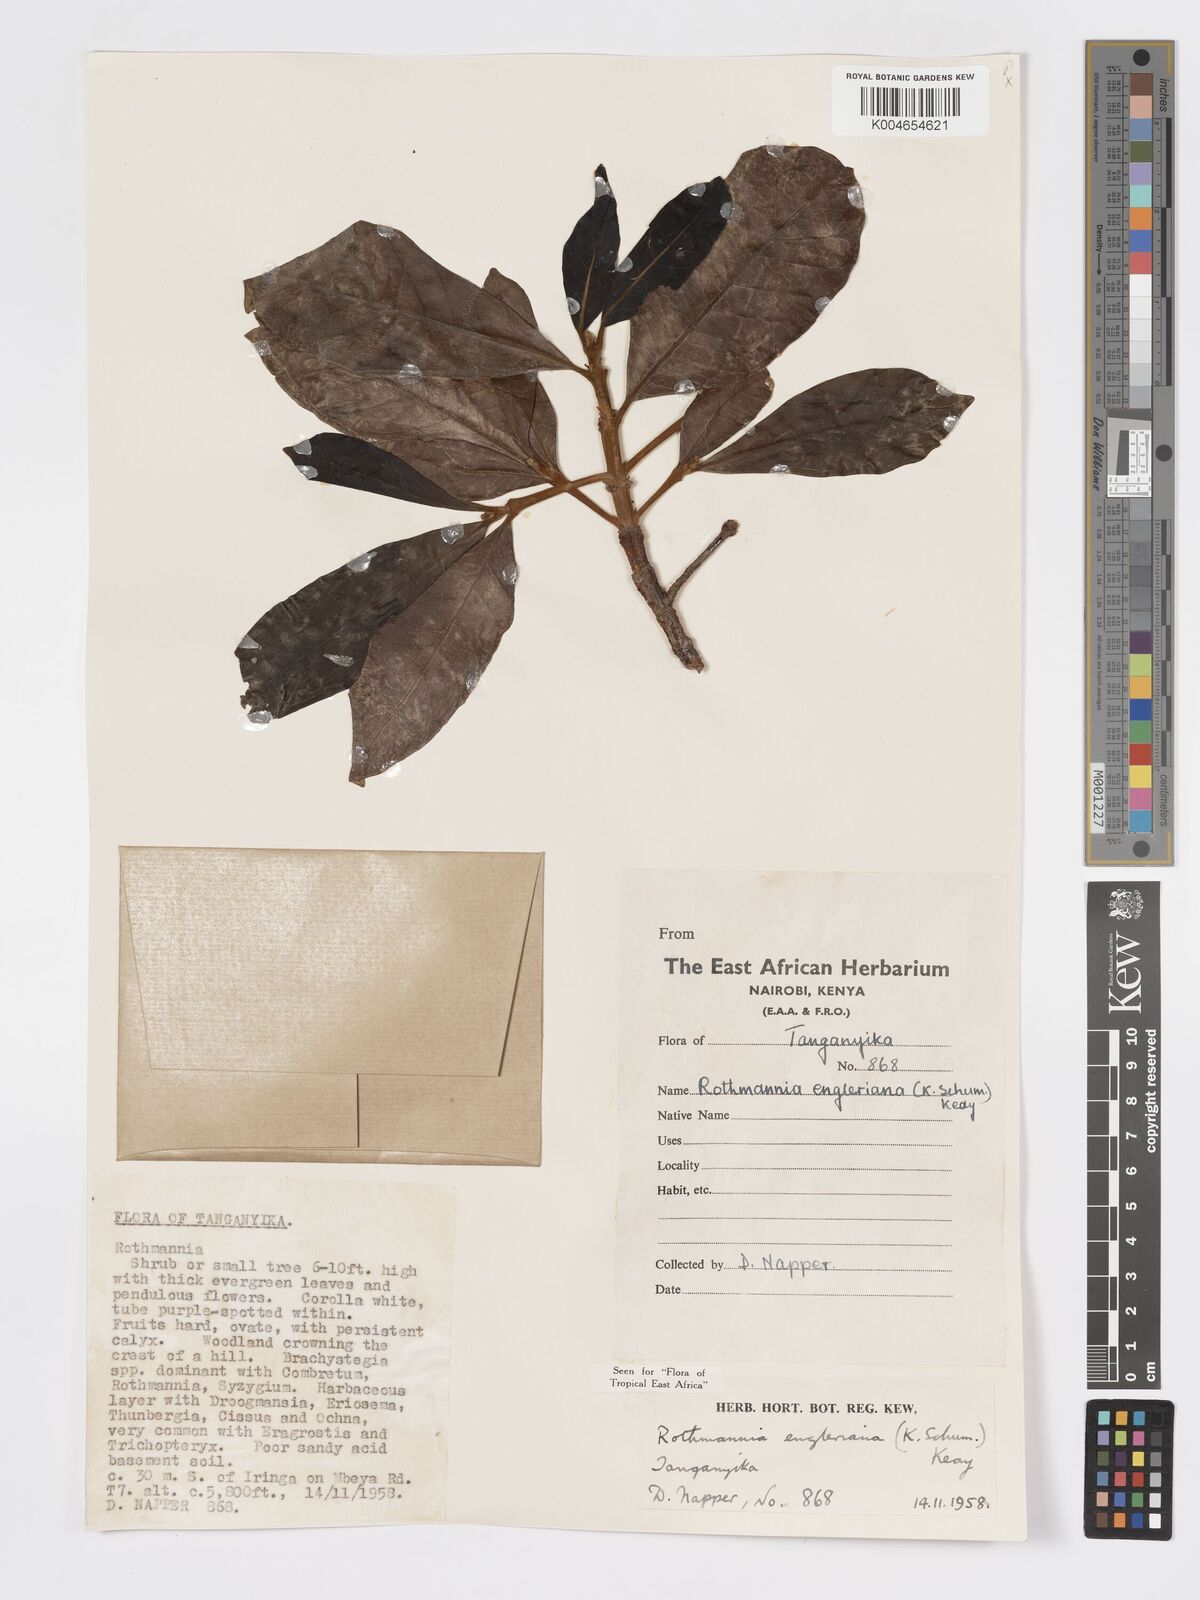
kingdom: Plantae
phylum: Tracheophyta
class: Magnoliopsida
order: Gentianales
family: Rubiaceae
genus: Rothmannia
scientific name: Rothmannia engleriana
